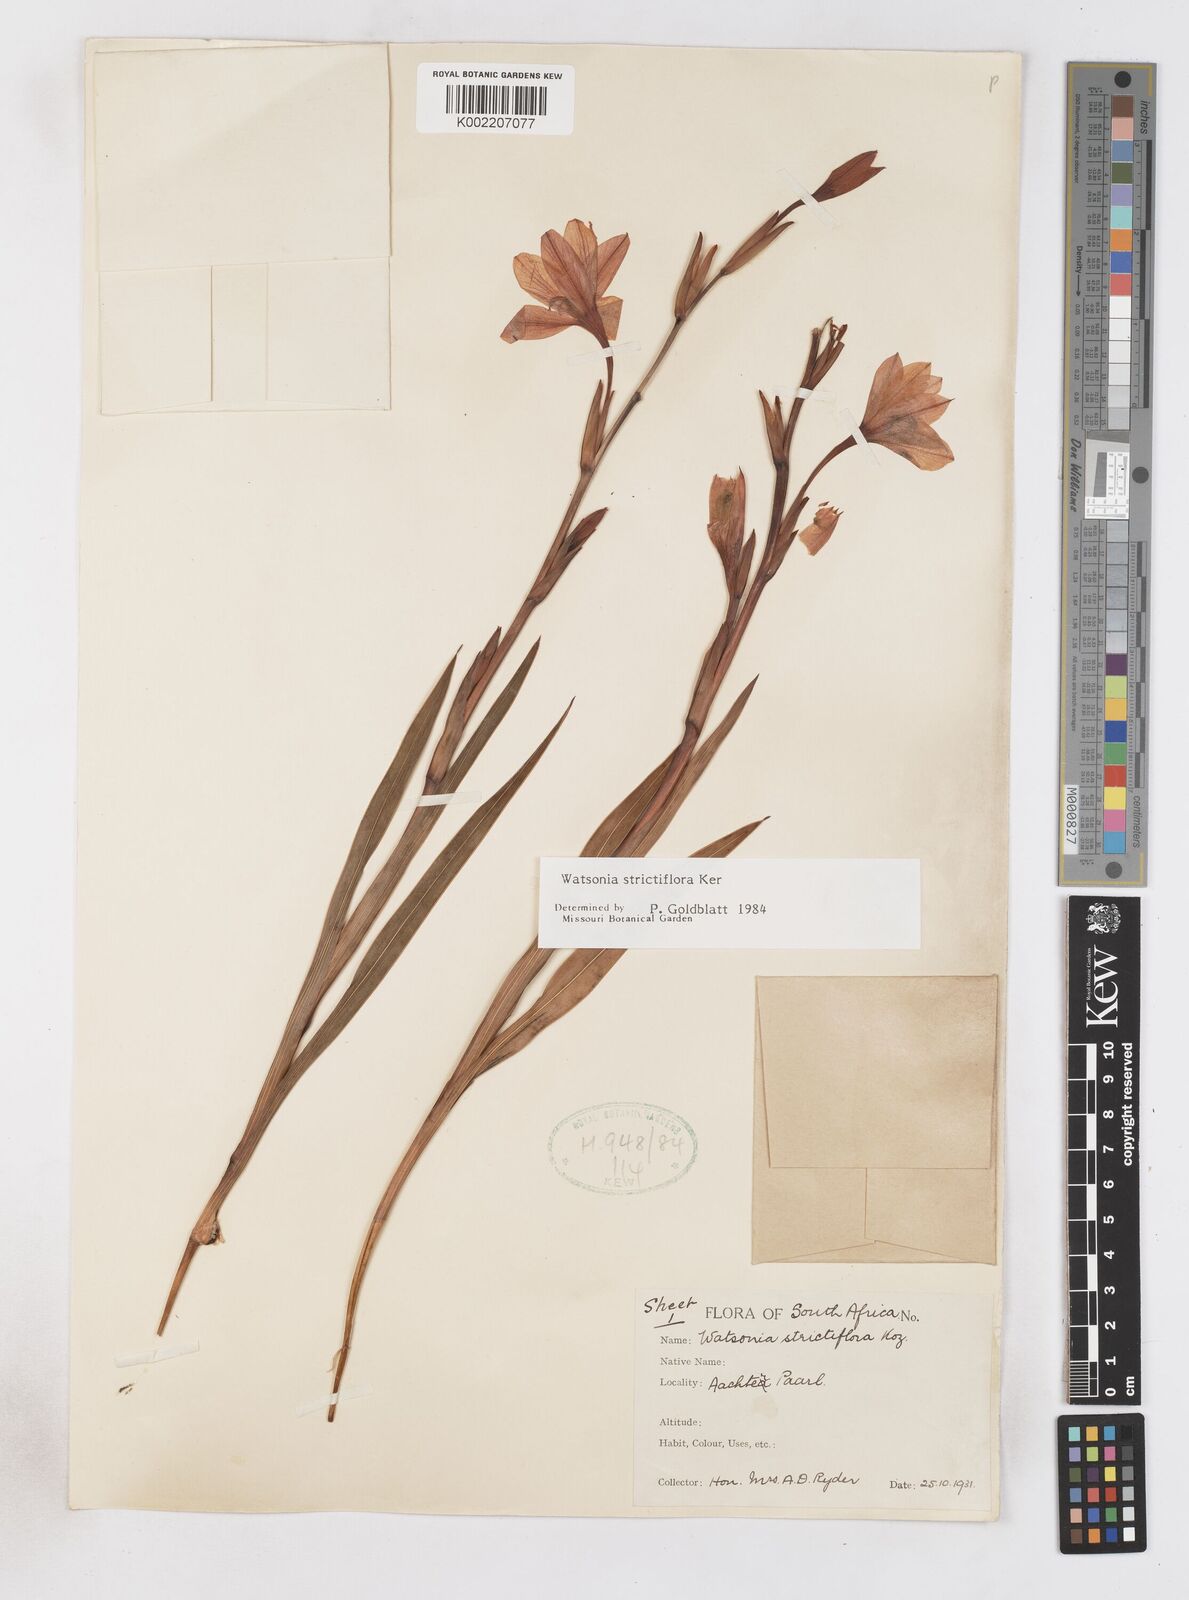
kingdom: Plantae
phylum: Tracheophyta
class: Liliopsida
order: Asparagales
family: Iridaceae
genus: Watsonia
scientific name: Watsonia strictiflora
